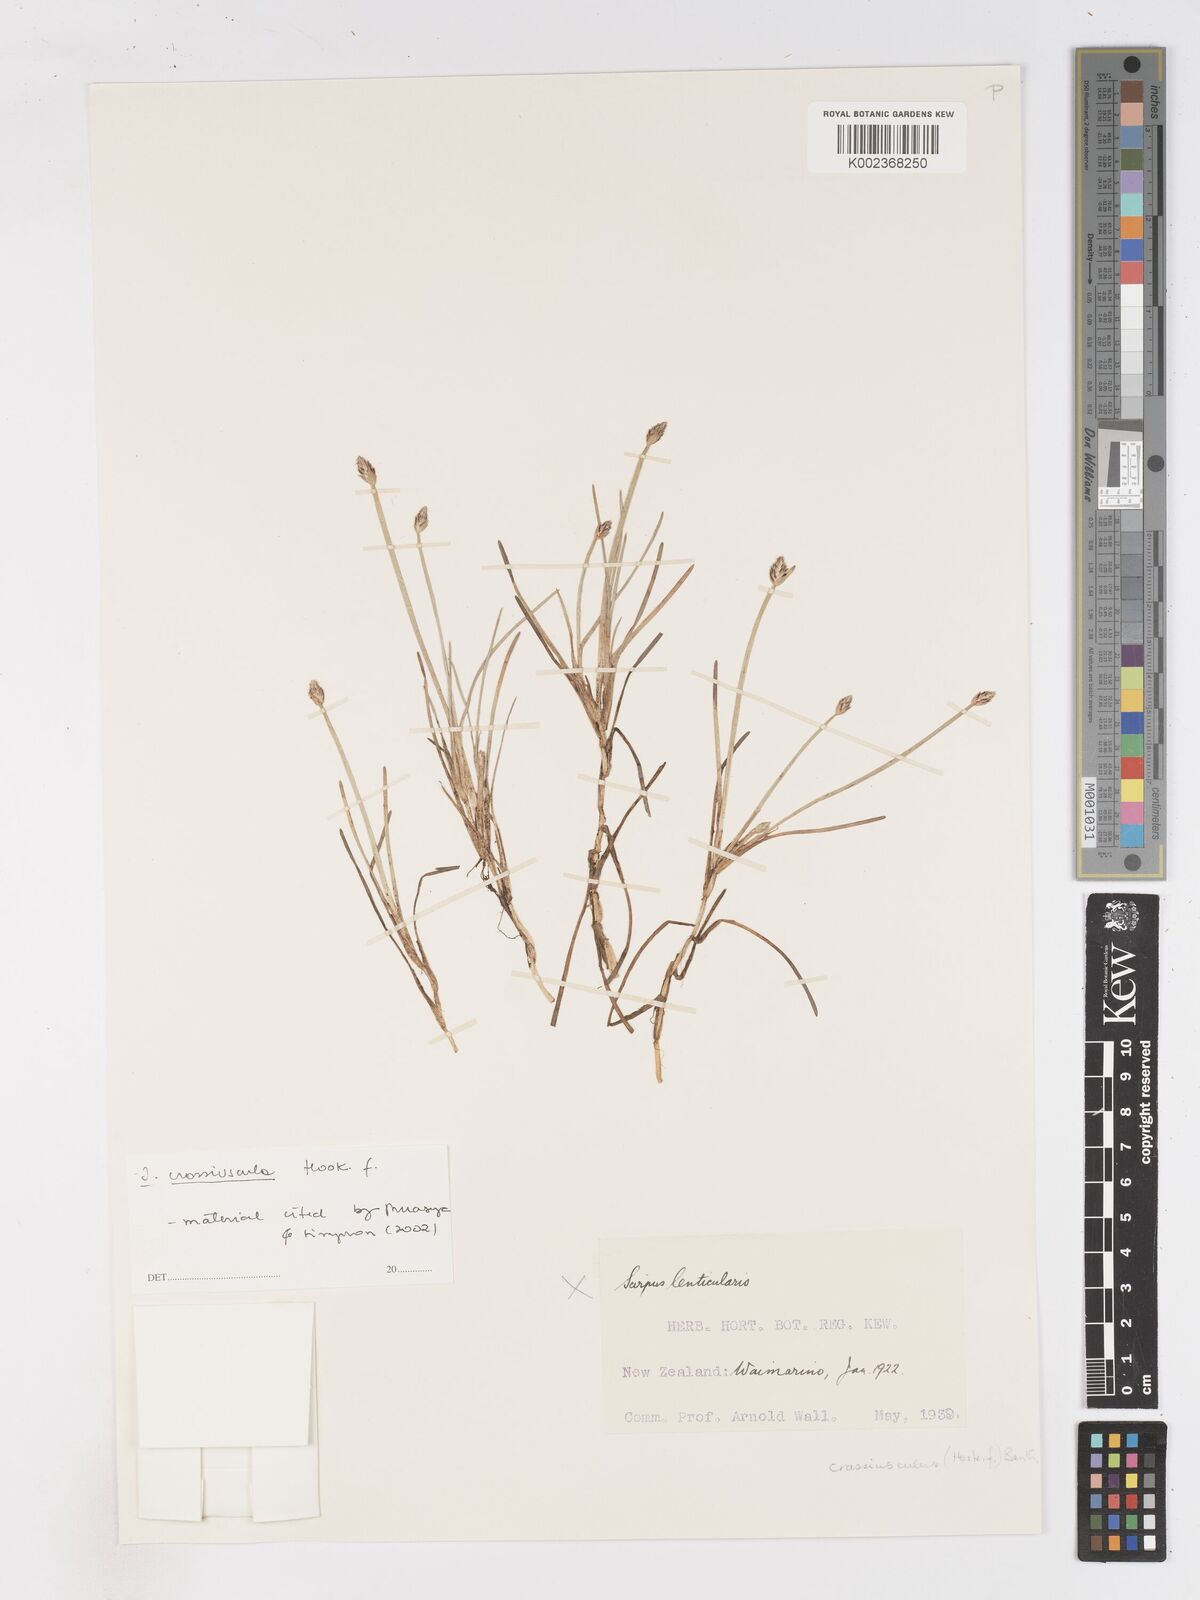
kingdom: Plantae
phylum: Tracheophyta
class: Liliopsida
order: Poales
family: Cyperaceae
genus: Isolepis
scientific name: Isolepis crassiuscula
